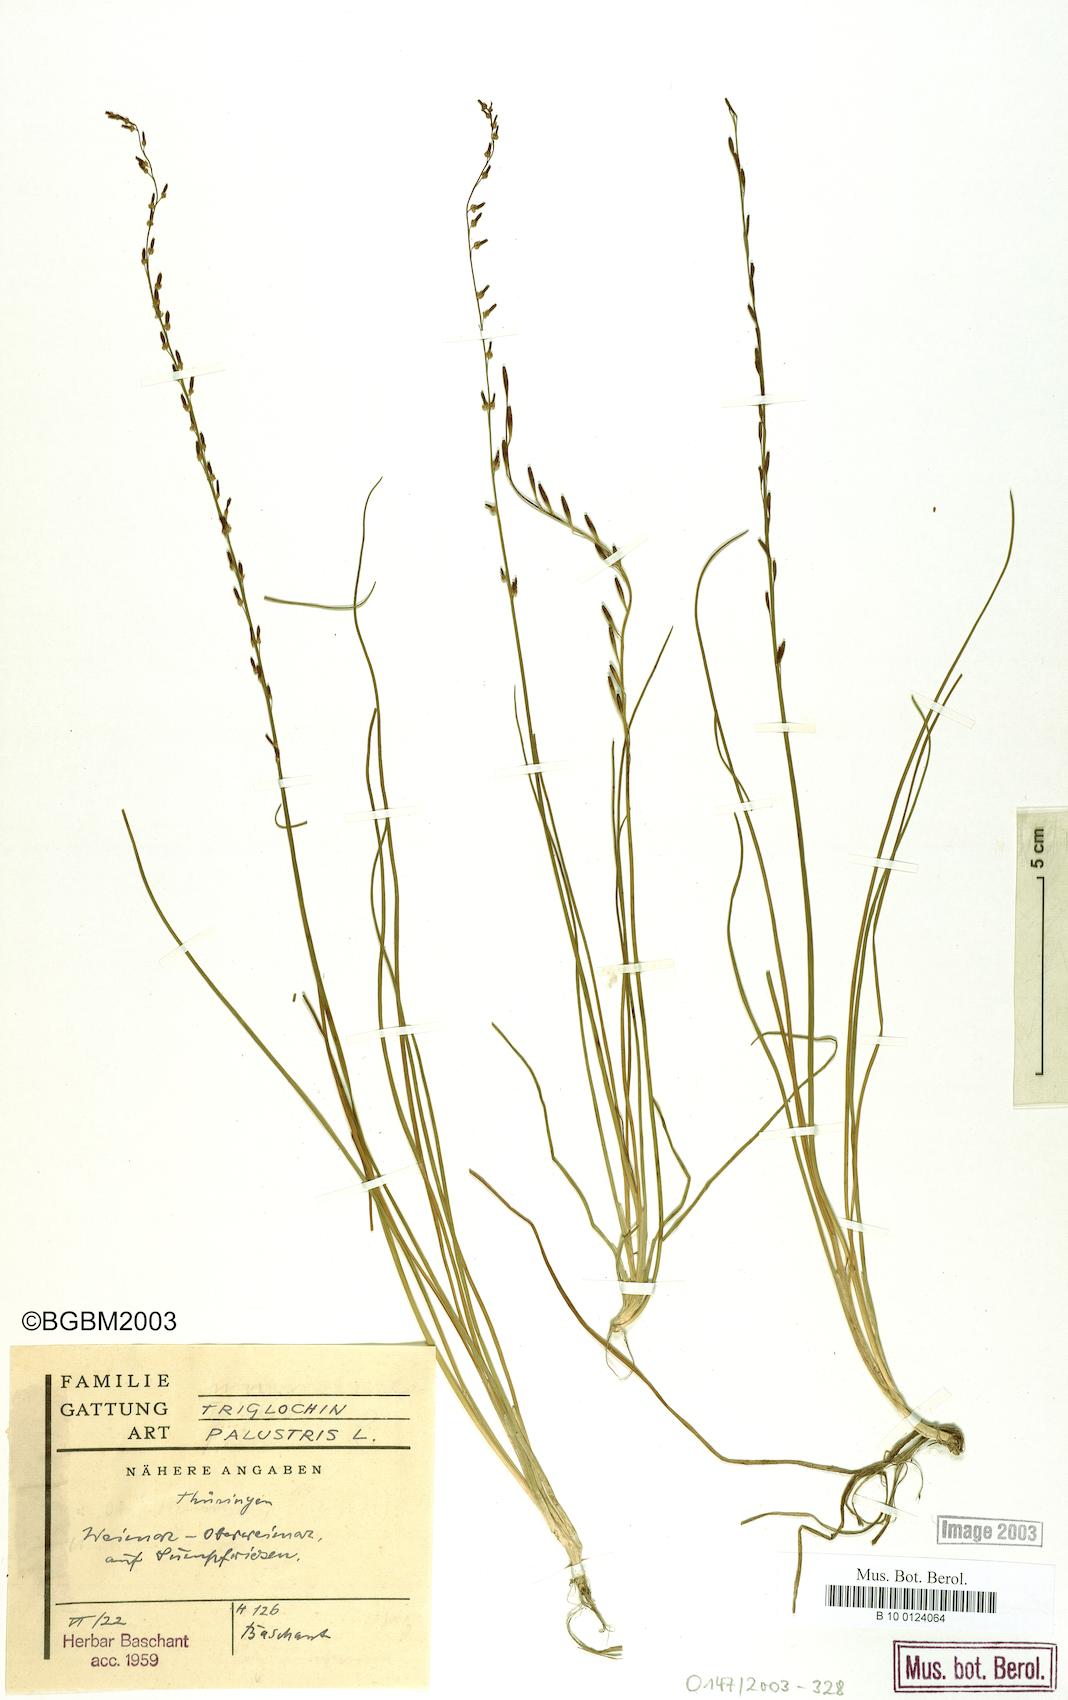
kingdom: Plantae
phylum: Tracheophyta
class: Liliopsida
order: Alismatales
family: Juncaginaceae
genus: Triglochin
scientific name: Triglochin palustris
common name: Marsh arrowgrass
